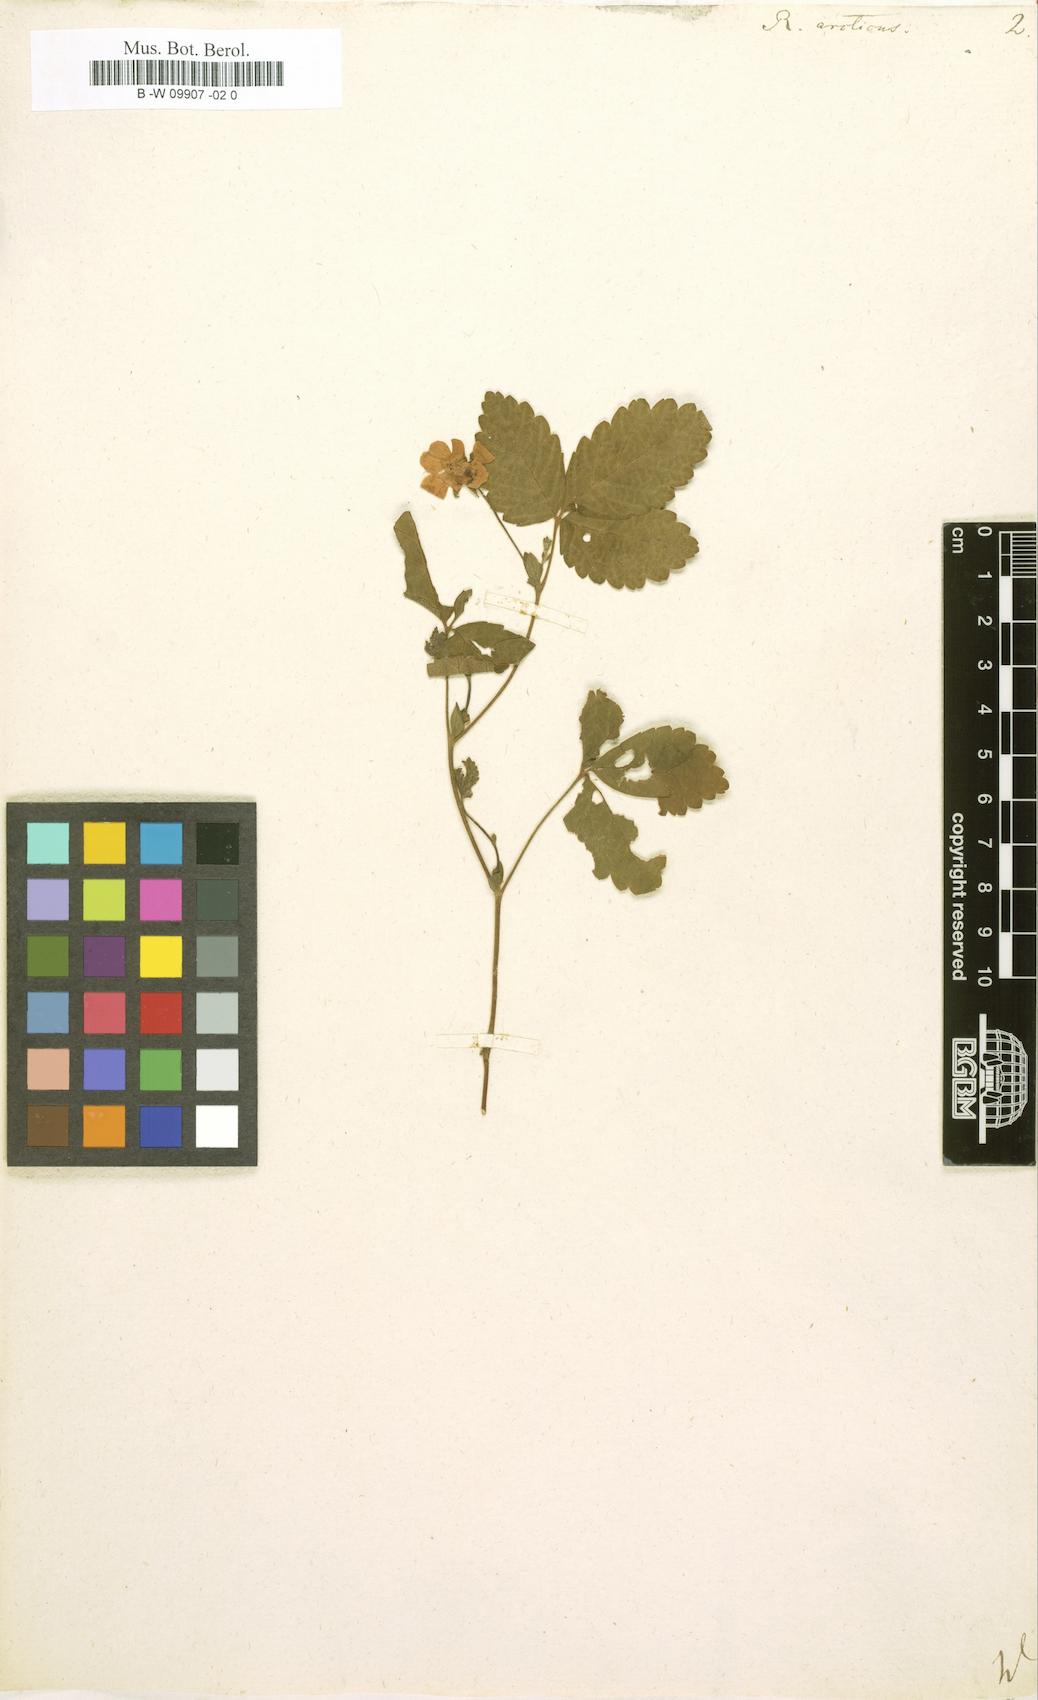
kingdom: Plantae
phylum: Tracheophyta
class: Magnoliopsida
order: Rosales
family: Rosaceae
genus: Rubus
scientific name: Rubus arcticus
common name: Arctic bramble
